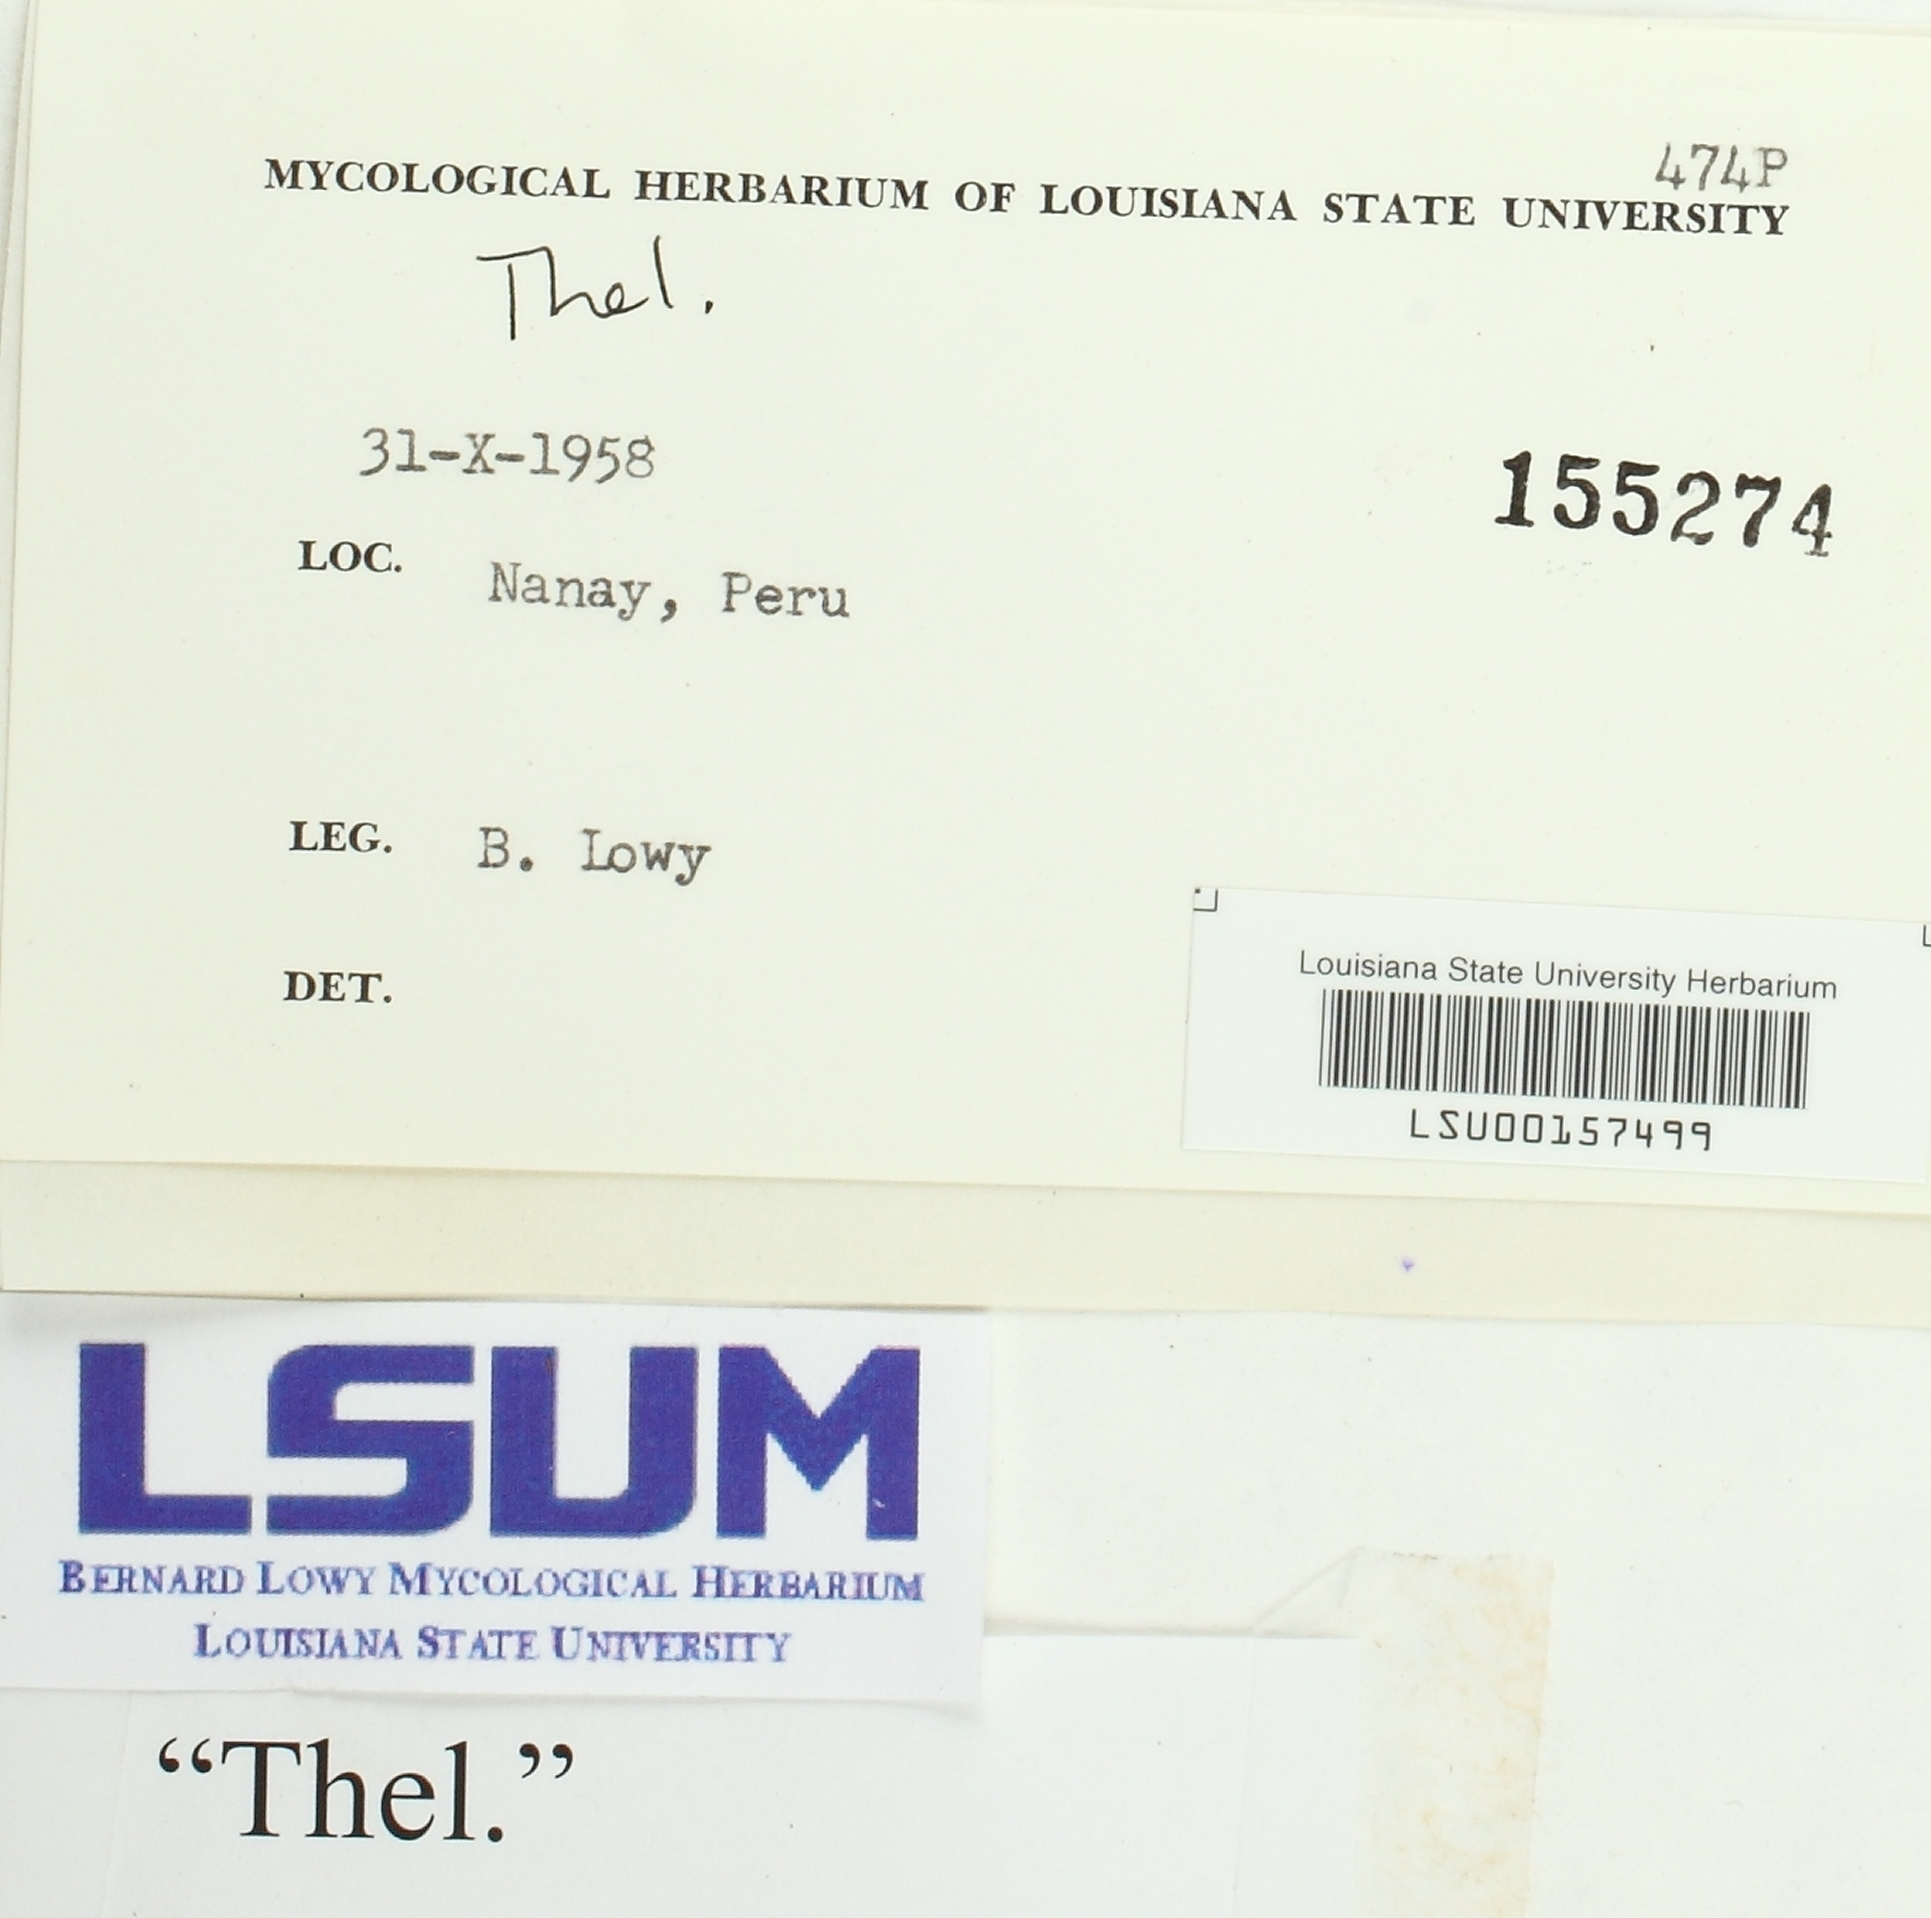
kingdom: Fungi
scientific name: Fungi
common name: Fungi
